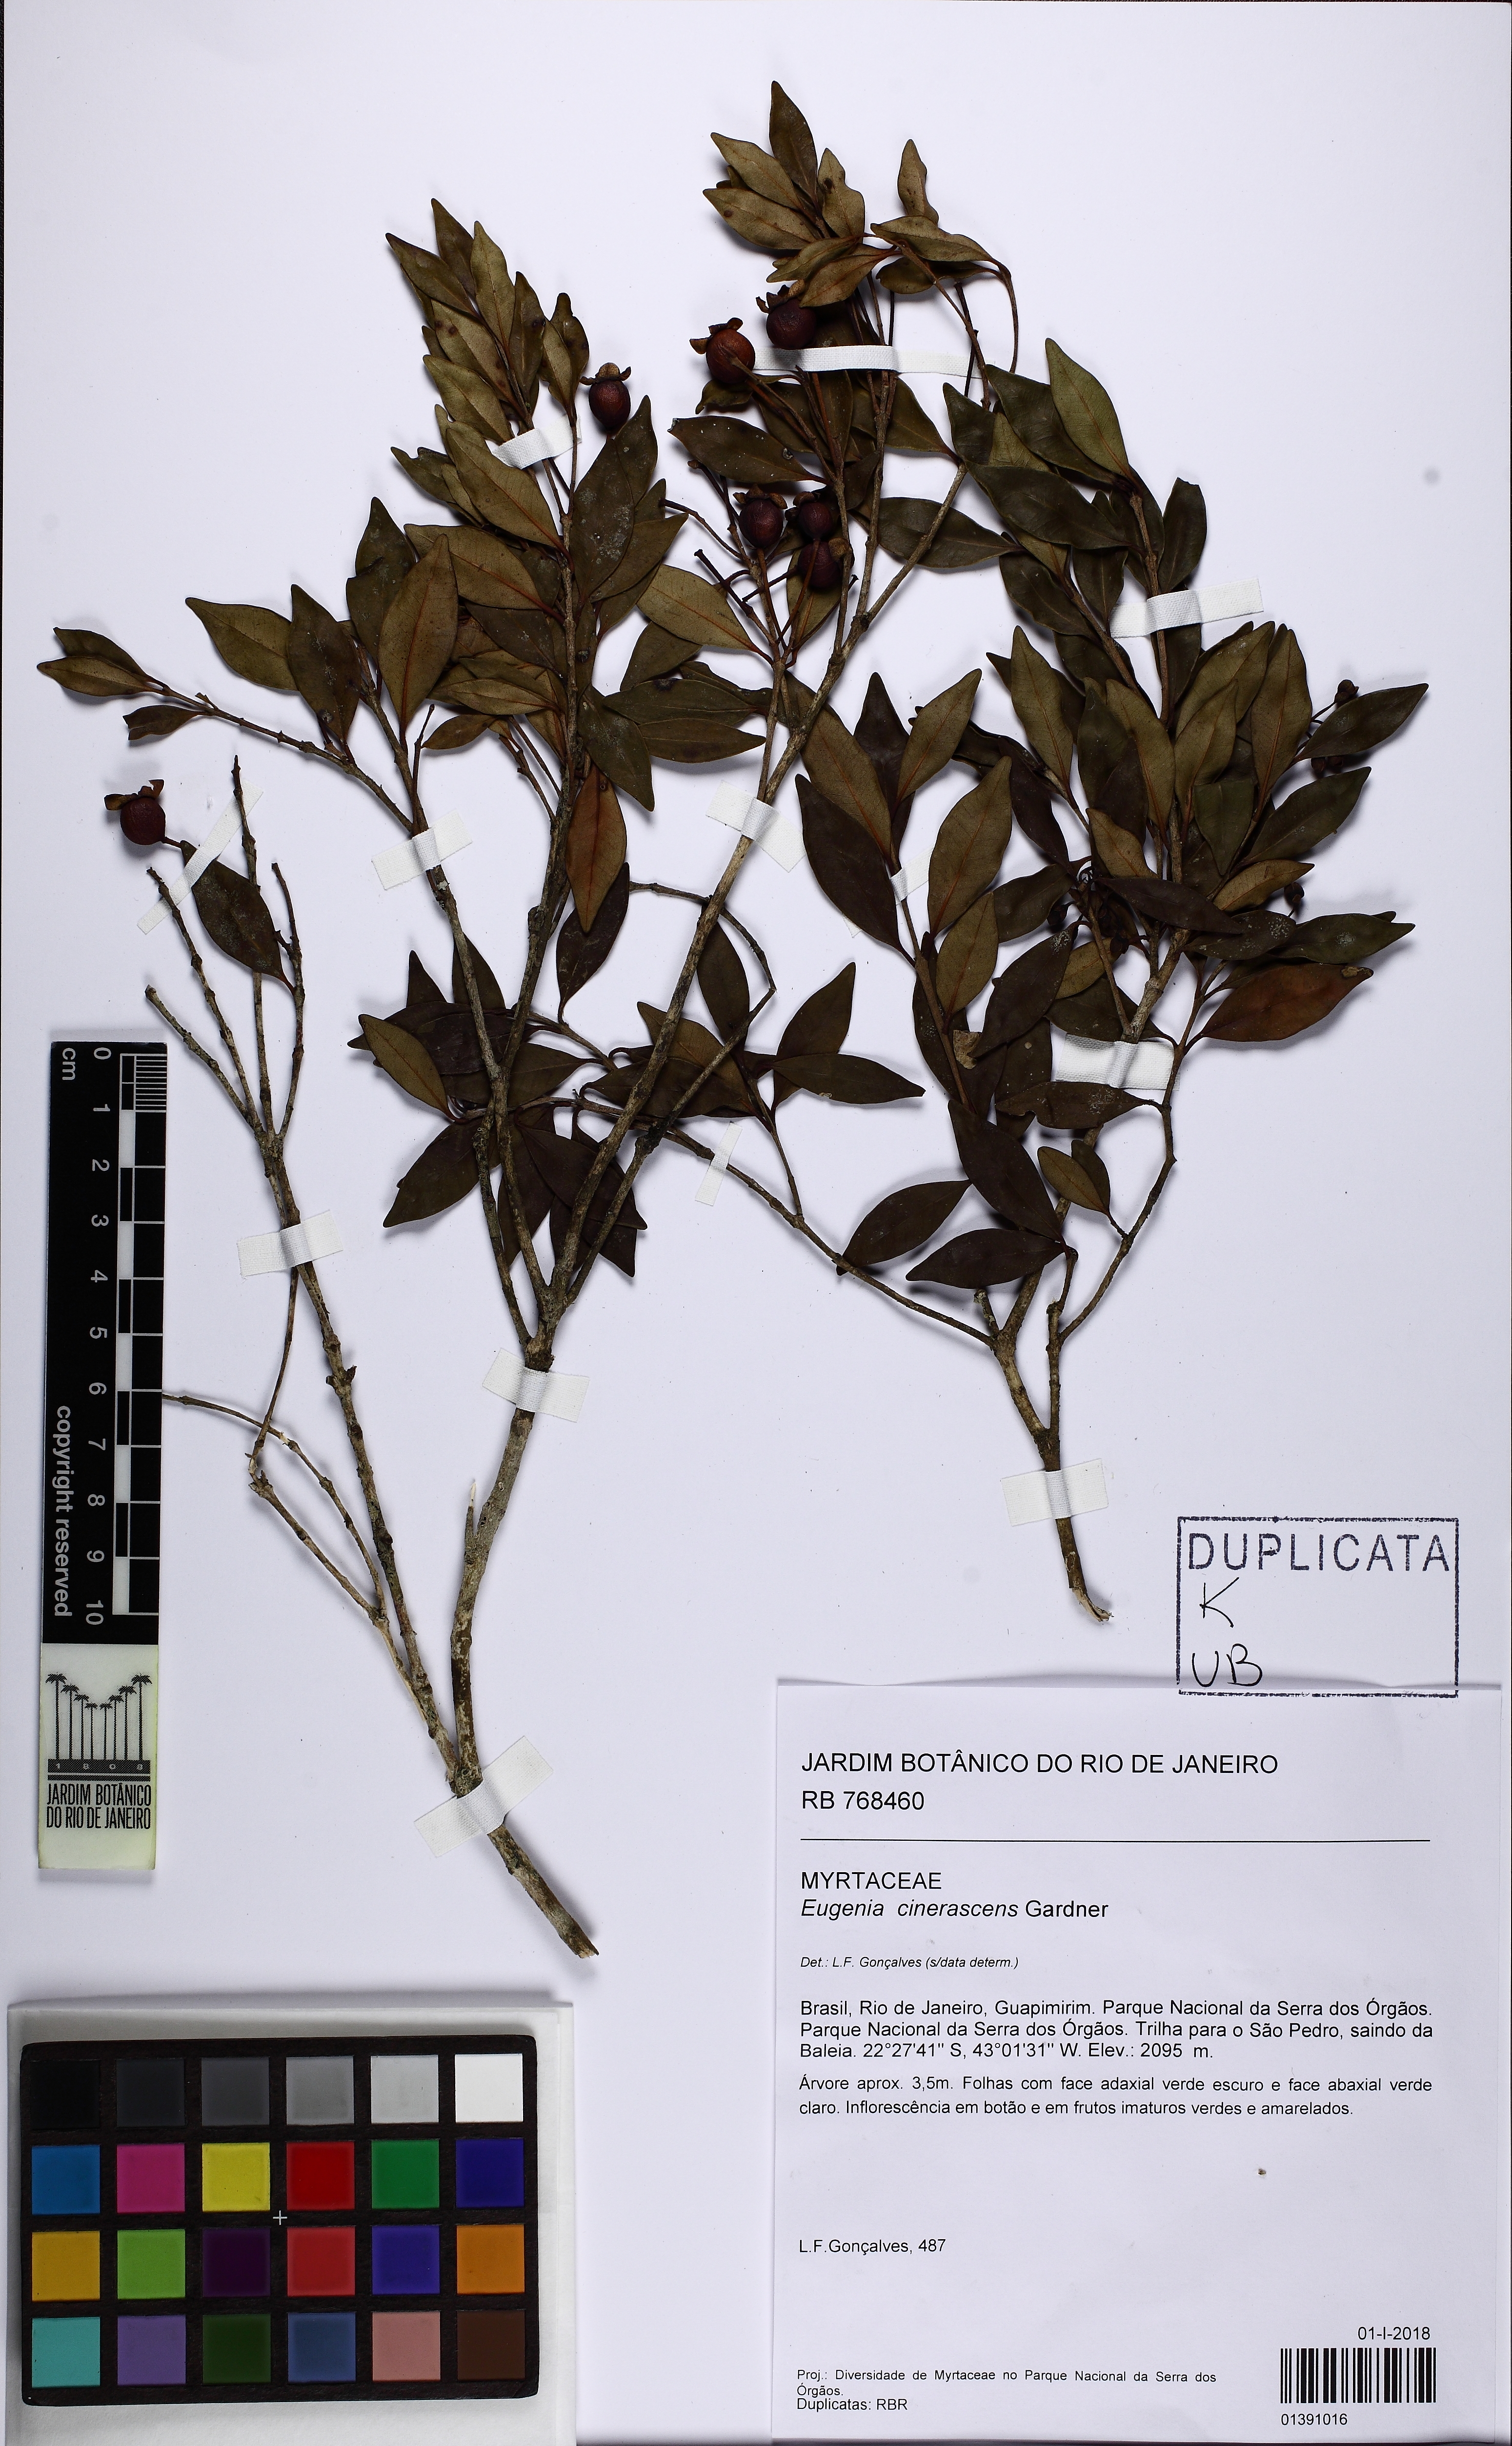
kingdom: Plantae
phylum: Tracheophyta
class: Magnoliopsida
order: Myrtales
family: Myrtaceae
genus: Eugenia
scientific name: Eugenia cinerascens
